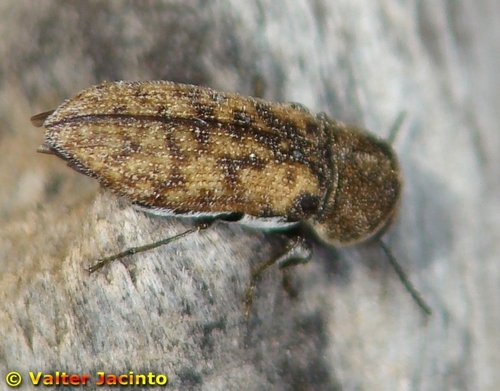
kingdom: Animalia
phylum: Arthropoda
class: Insecta
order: Coleoptera
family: Buprestidae
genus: Acmaeoderella
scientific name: Acmaeoderella adspersula
